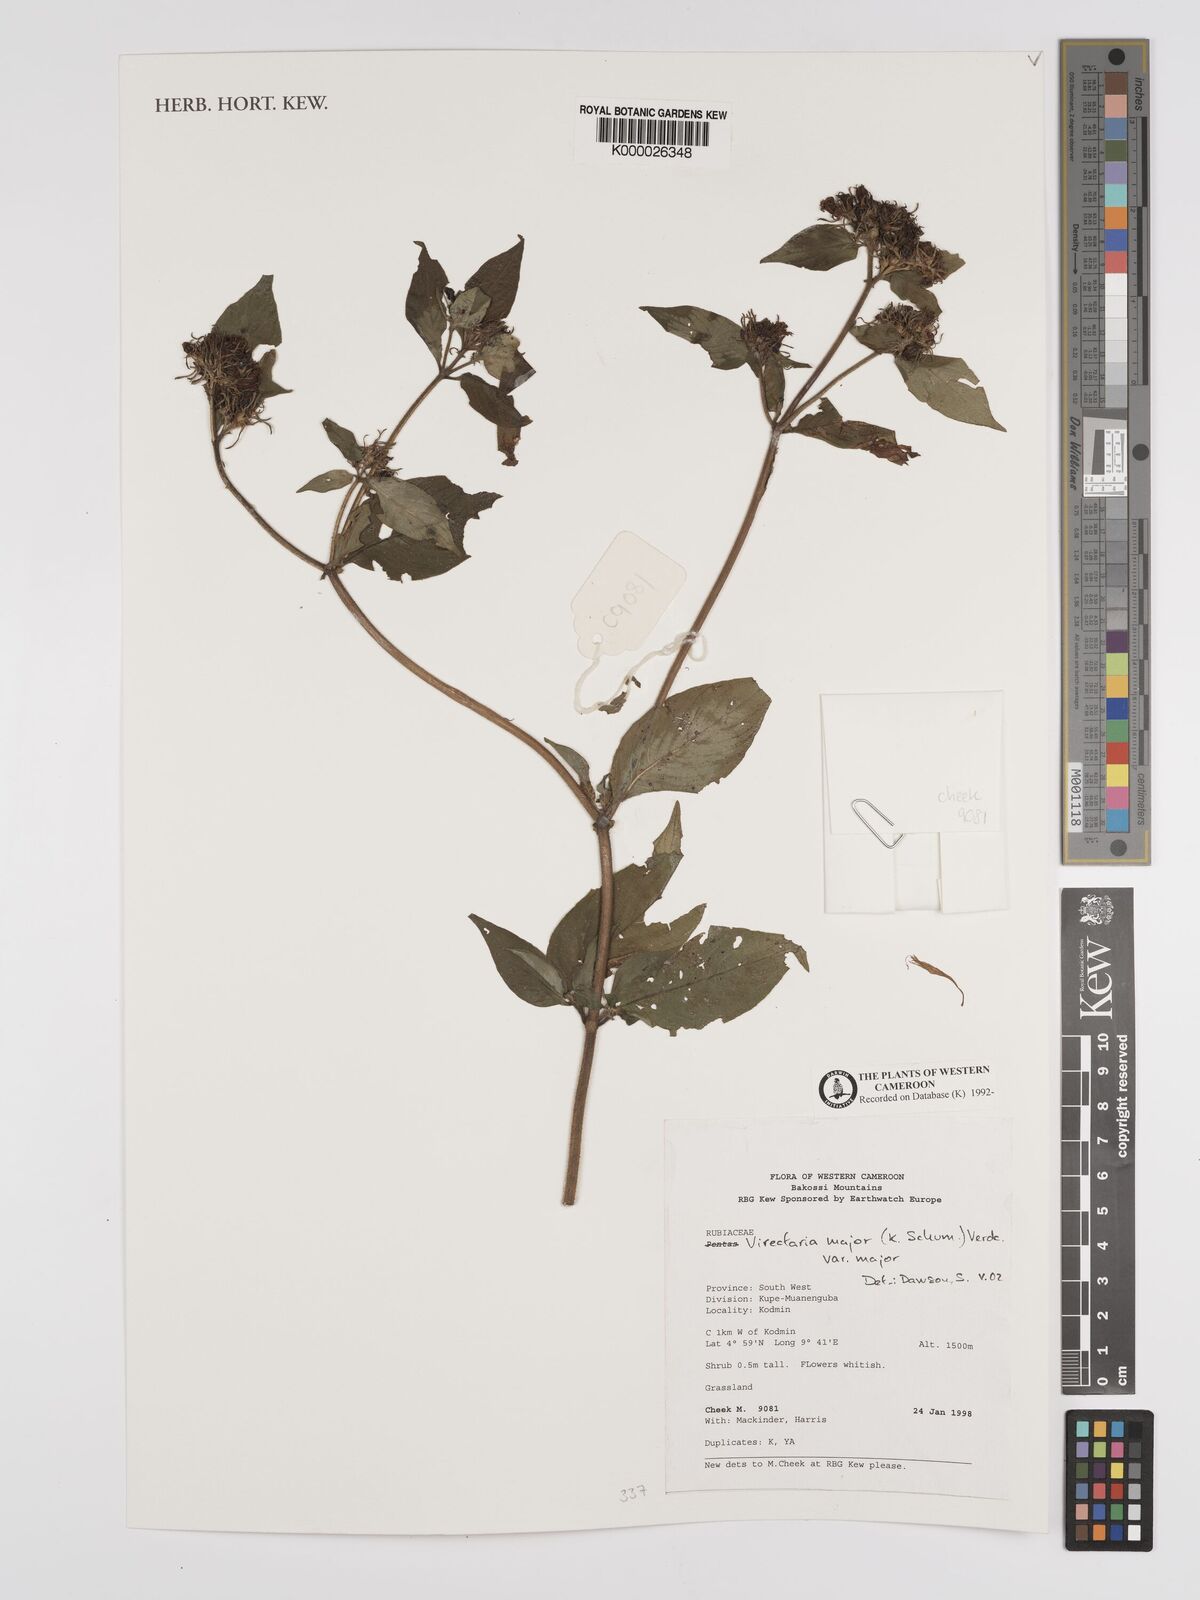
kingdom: Plantae
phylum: Tracheophyta
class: Magnoliopsida
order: Gentianales
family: Rubiaceae
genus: Virectaria
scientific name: Virectaria major
